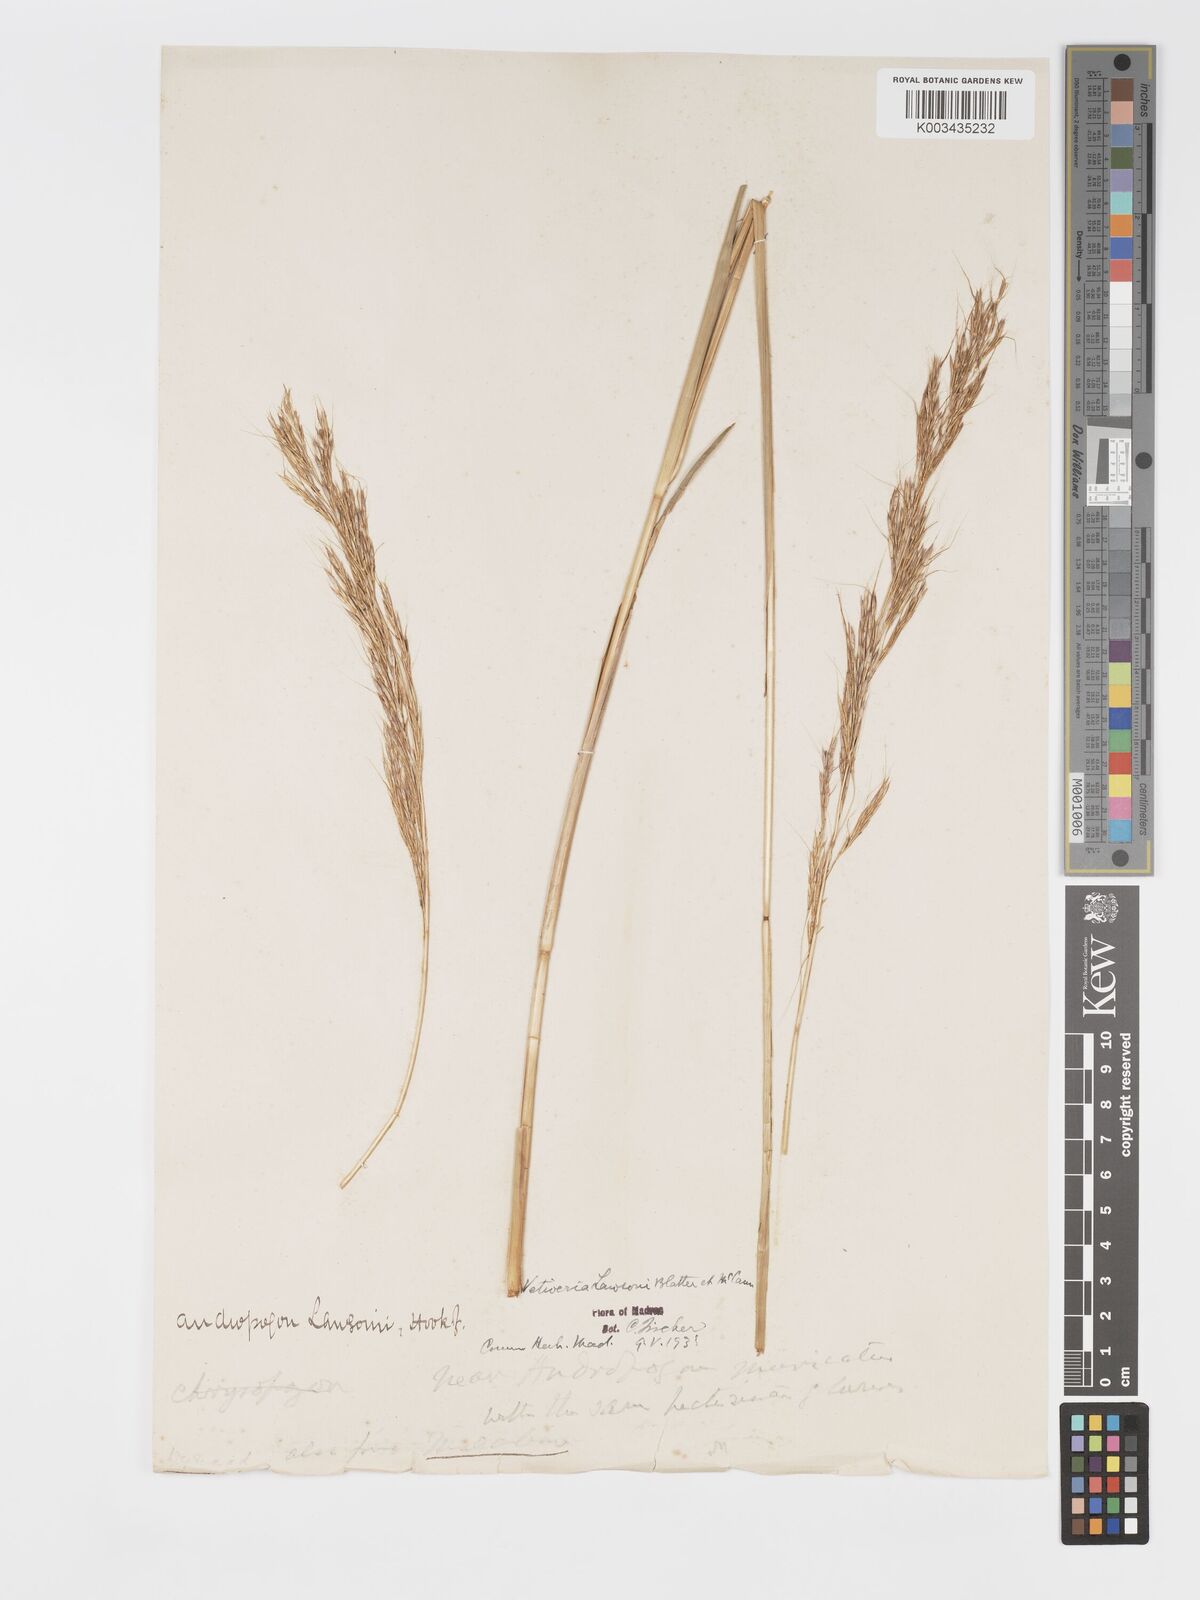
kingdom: Plantae
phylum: Tracheophyta
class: Liliopsida
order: Poales
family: Poaceae
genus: Chrysopogon
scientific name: Chrysopogon lawsonii
